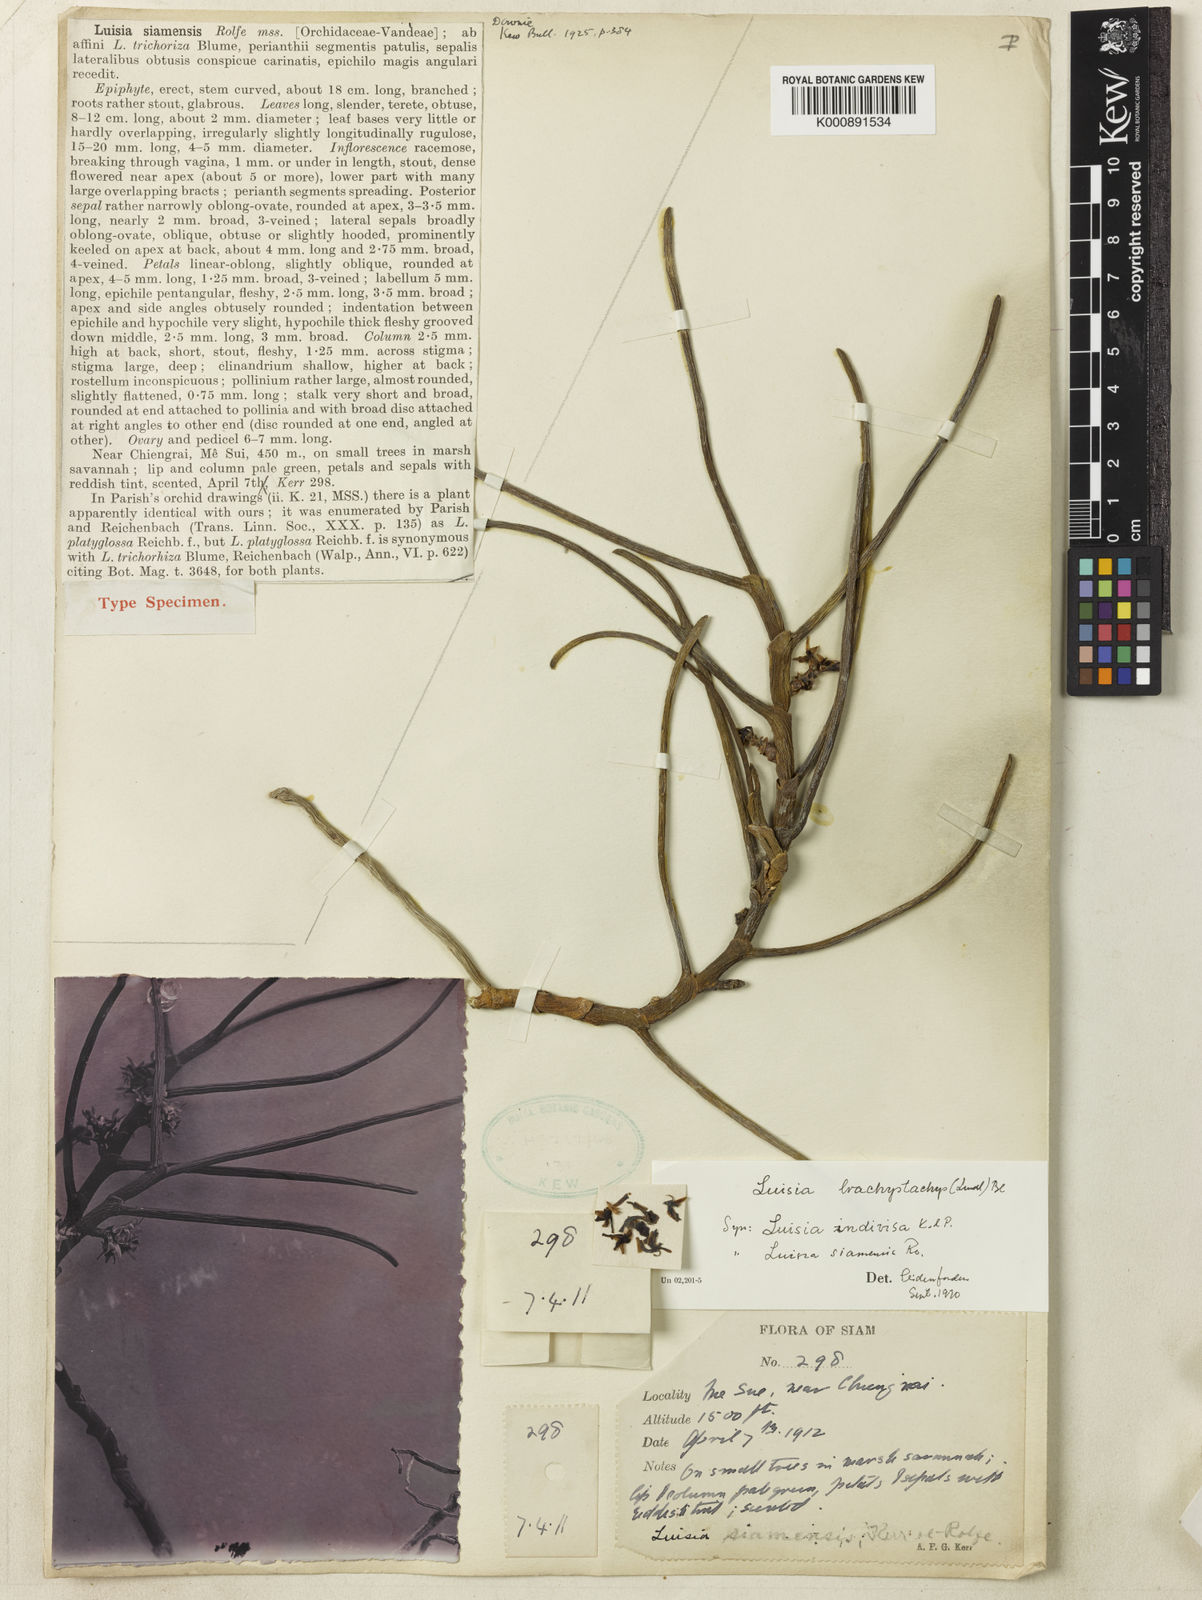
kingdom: Plantae
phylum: Tracheophyta
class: Liliopsida
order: Asparagales
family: Orchidaceae
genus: Luisia
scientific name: Luisia brachystachys
